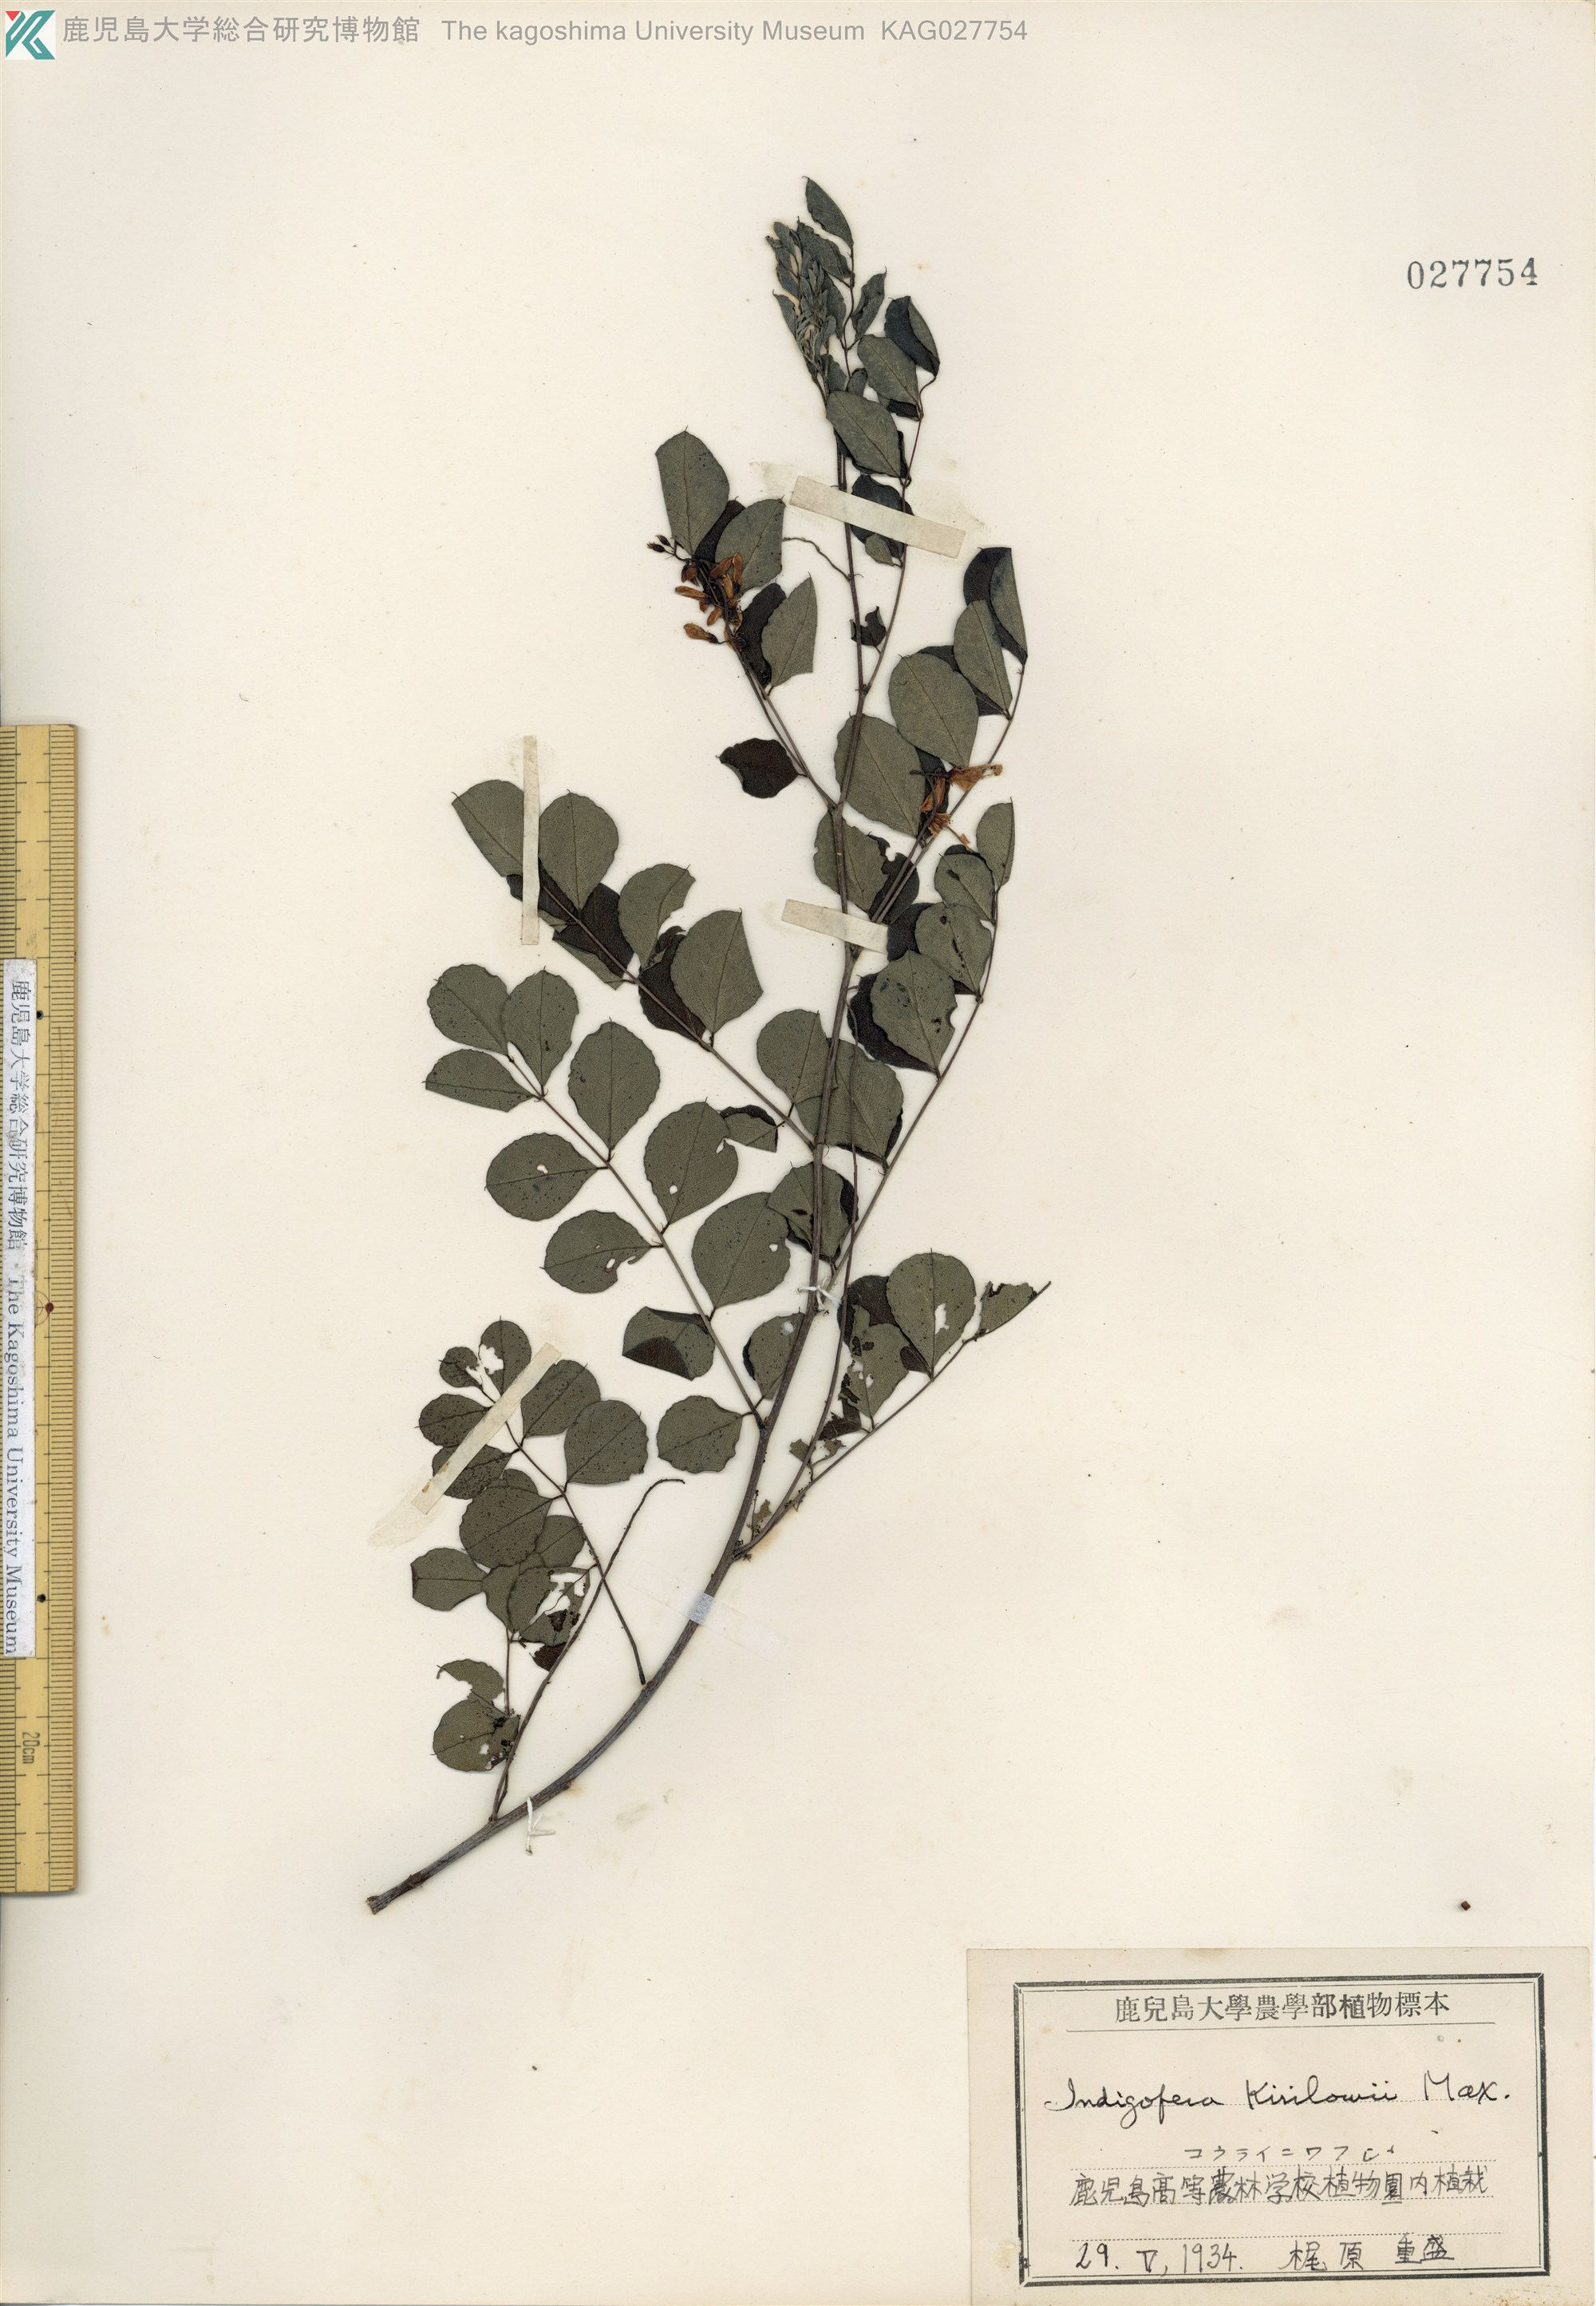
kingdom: Plantae
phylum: Tracheophyta
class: Magnoliopsida
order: Fabales
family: Fabaceae
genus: Indigofera
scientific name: Indigofera kirilowii
